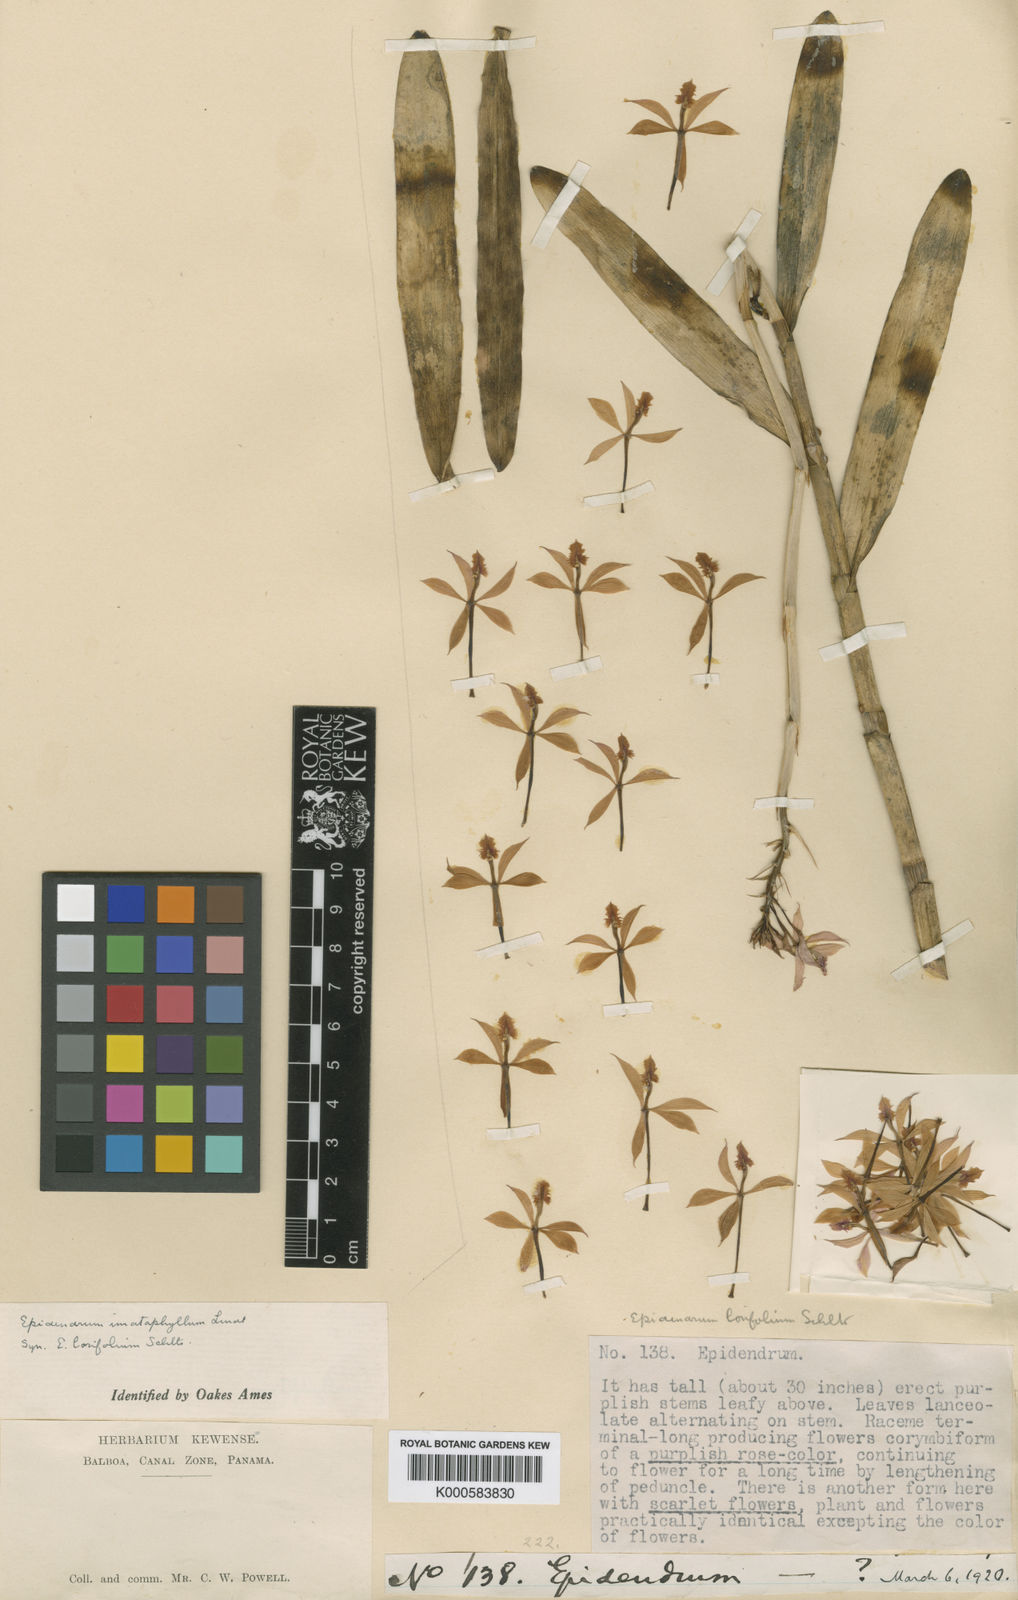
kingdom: Plantae
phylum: Tracheophyta
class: Liliopsida
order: Asparagales
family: Orchidaceae
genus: Epidendrum
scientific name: Epidendrum
